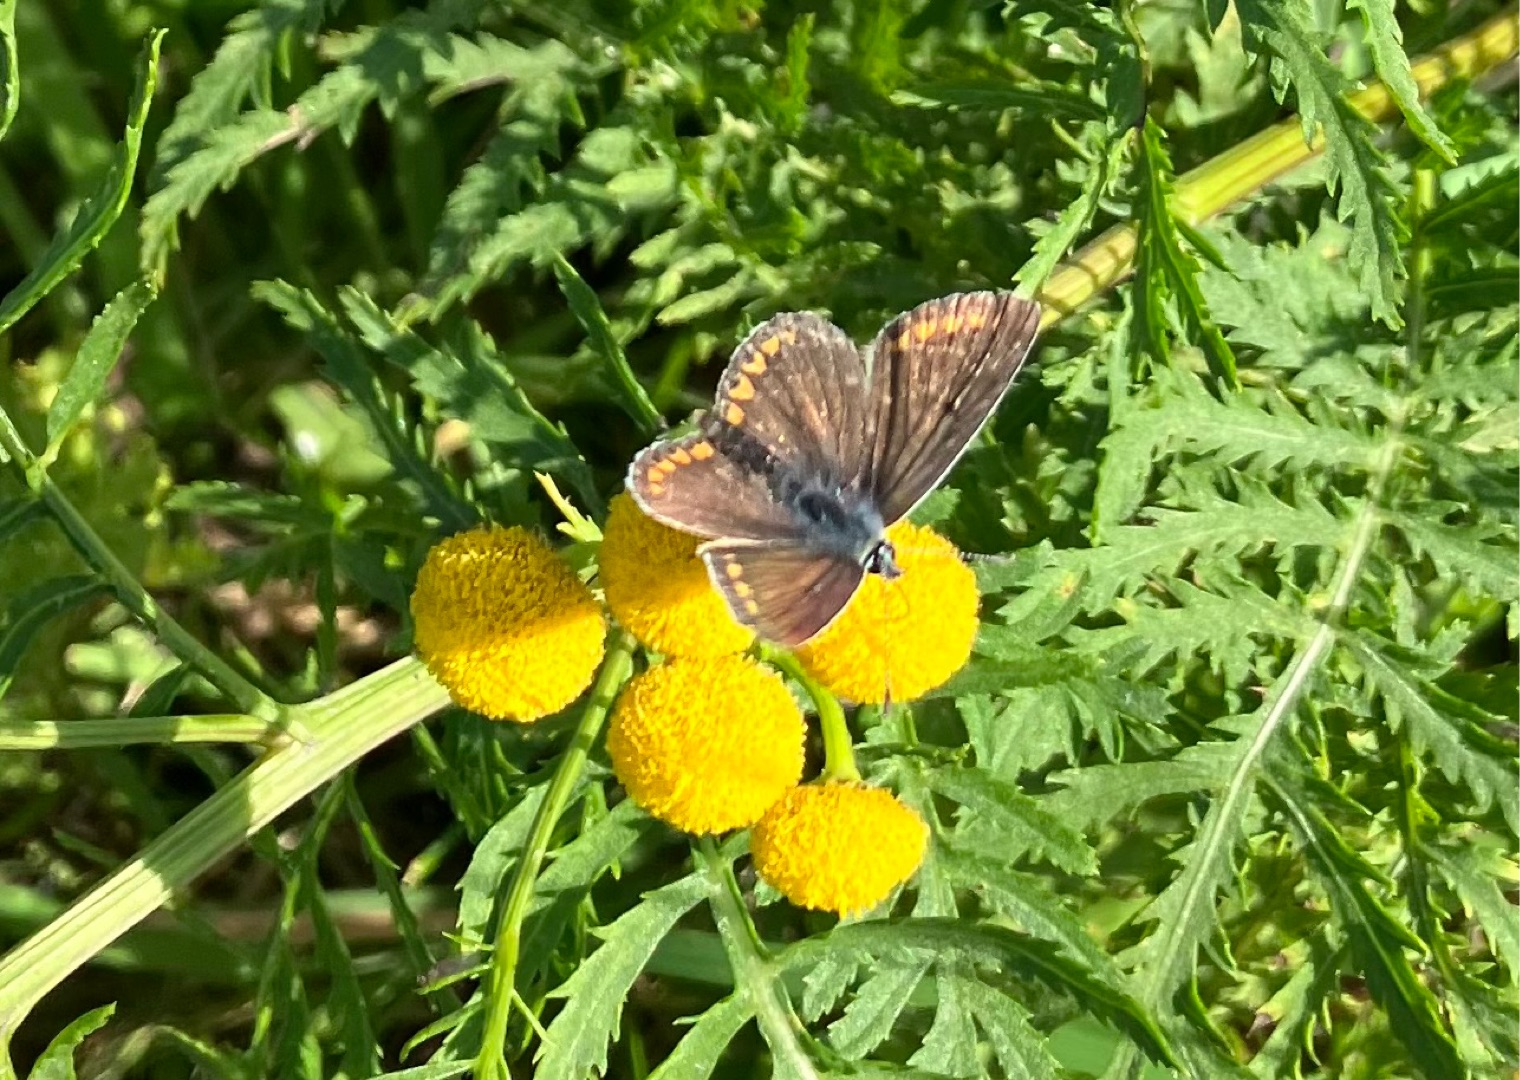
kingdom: Animalia
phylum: Arthropoda
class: Insecta
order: Lepidoptera
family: Lycaenidae
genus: Aricia
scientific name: Aricia agestis
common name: Rødplettet blåfugl
